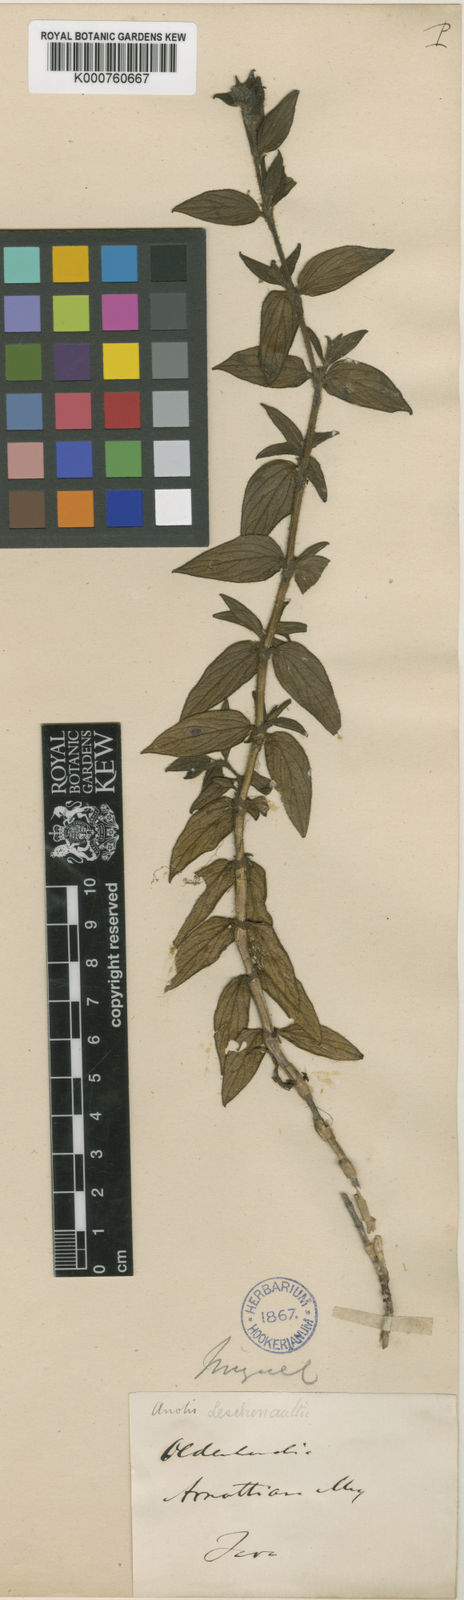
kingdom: Plantae
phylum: Tracheophyta
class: Magnoliopsida
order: Gentianales
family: Rubiaceae
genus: Neanotis
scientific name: Neanotis indica
